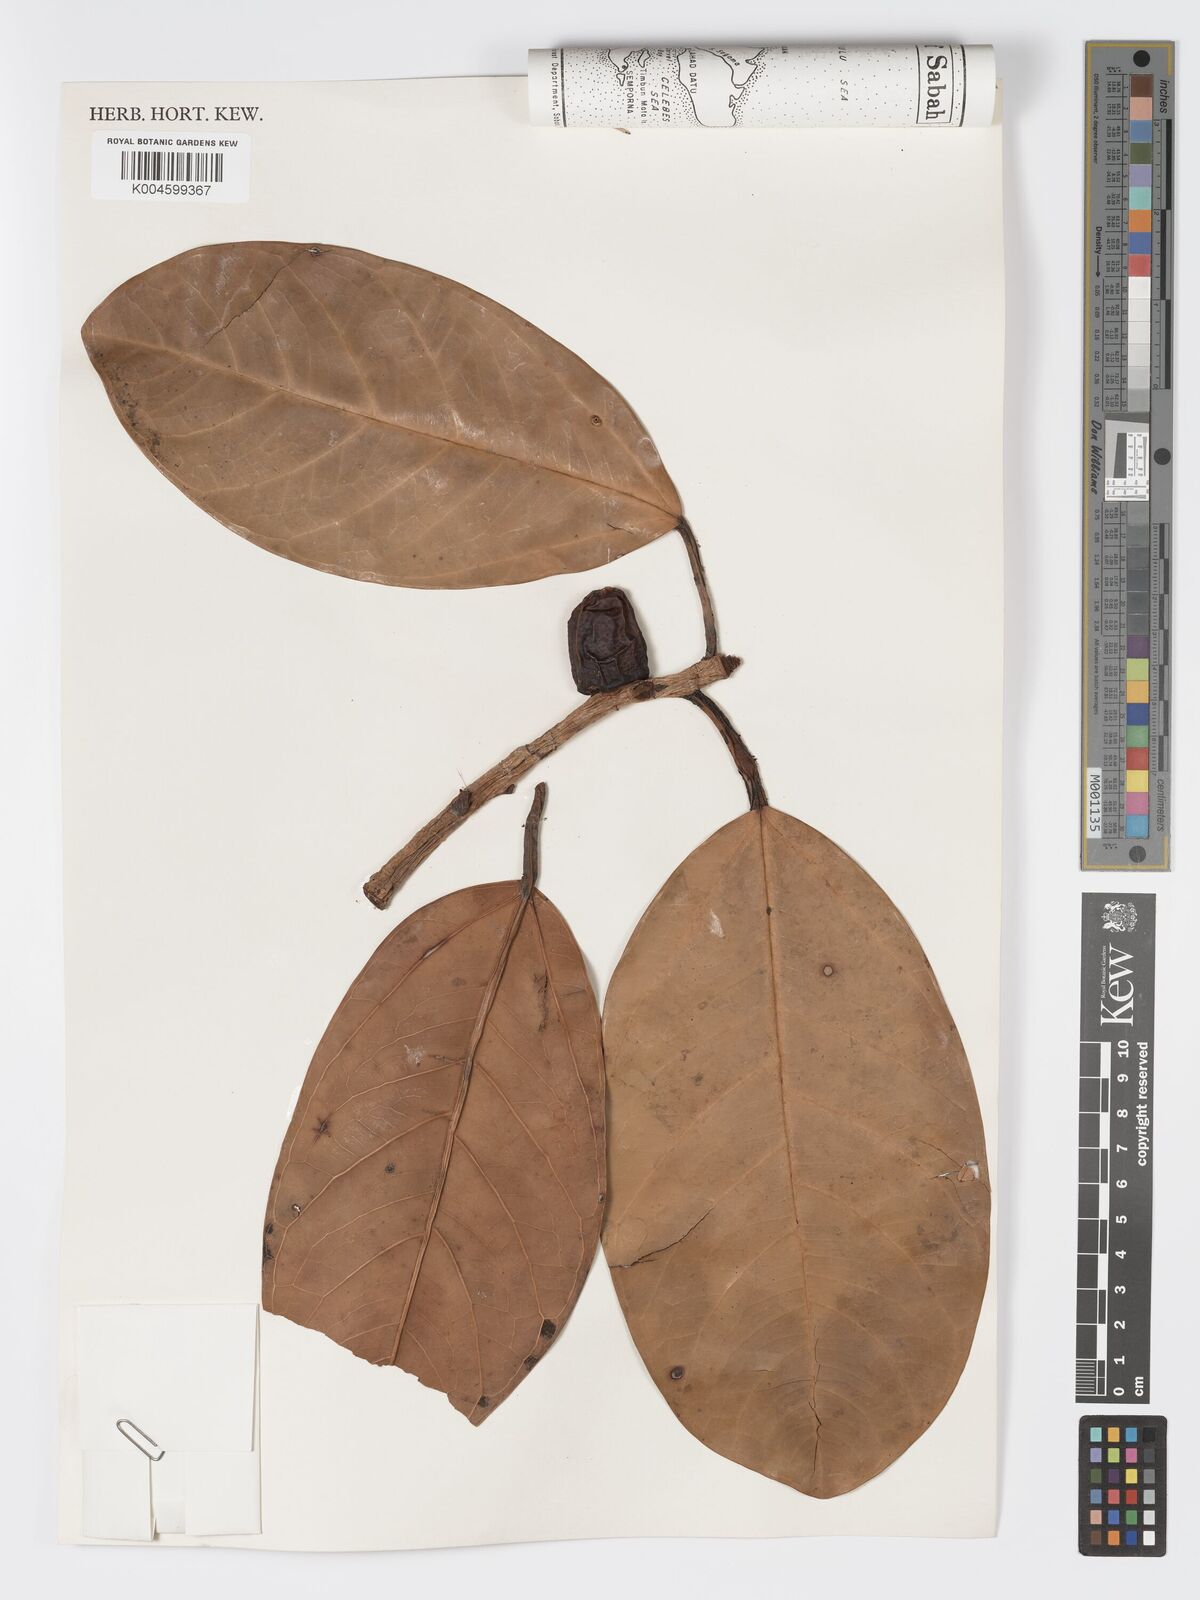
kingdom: Plantae
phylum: Tracheophyta
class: Magnoliopsida
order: Rosales
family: Moraceae
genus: Ficus
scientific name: Ficus xylophylla
